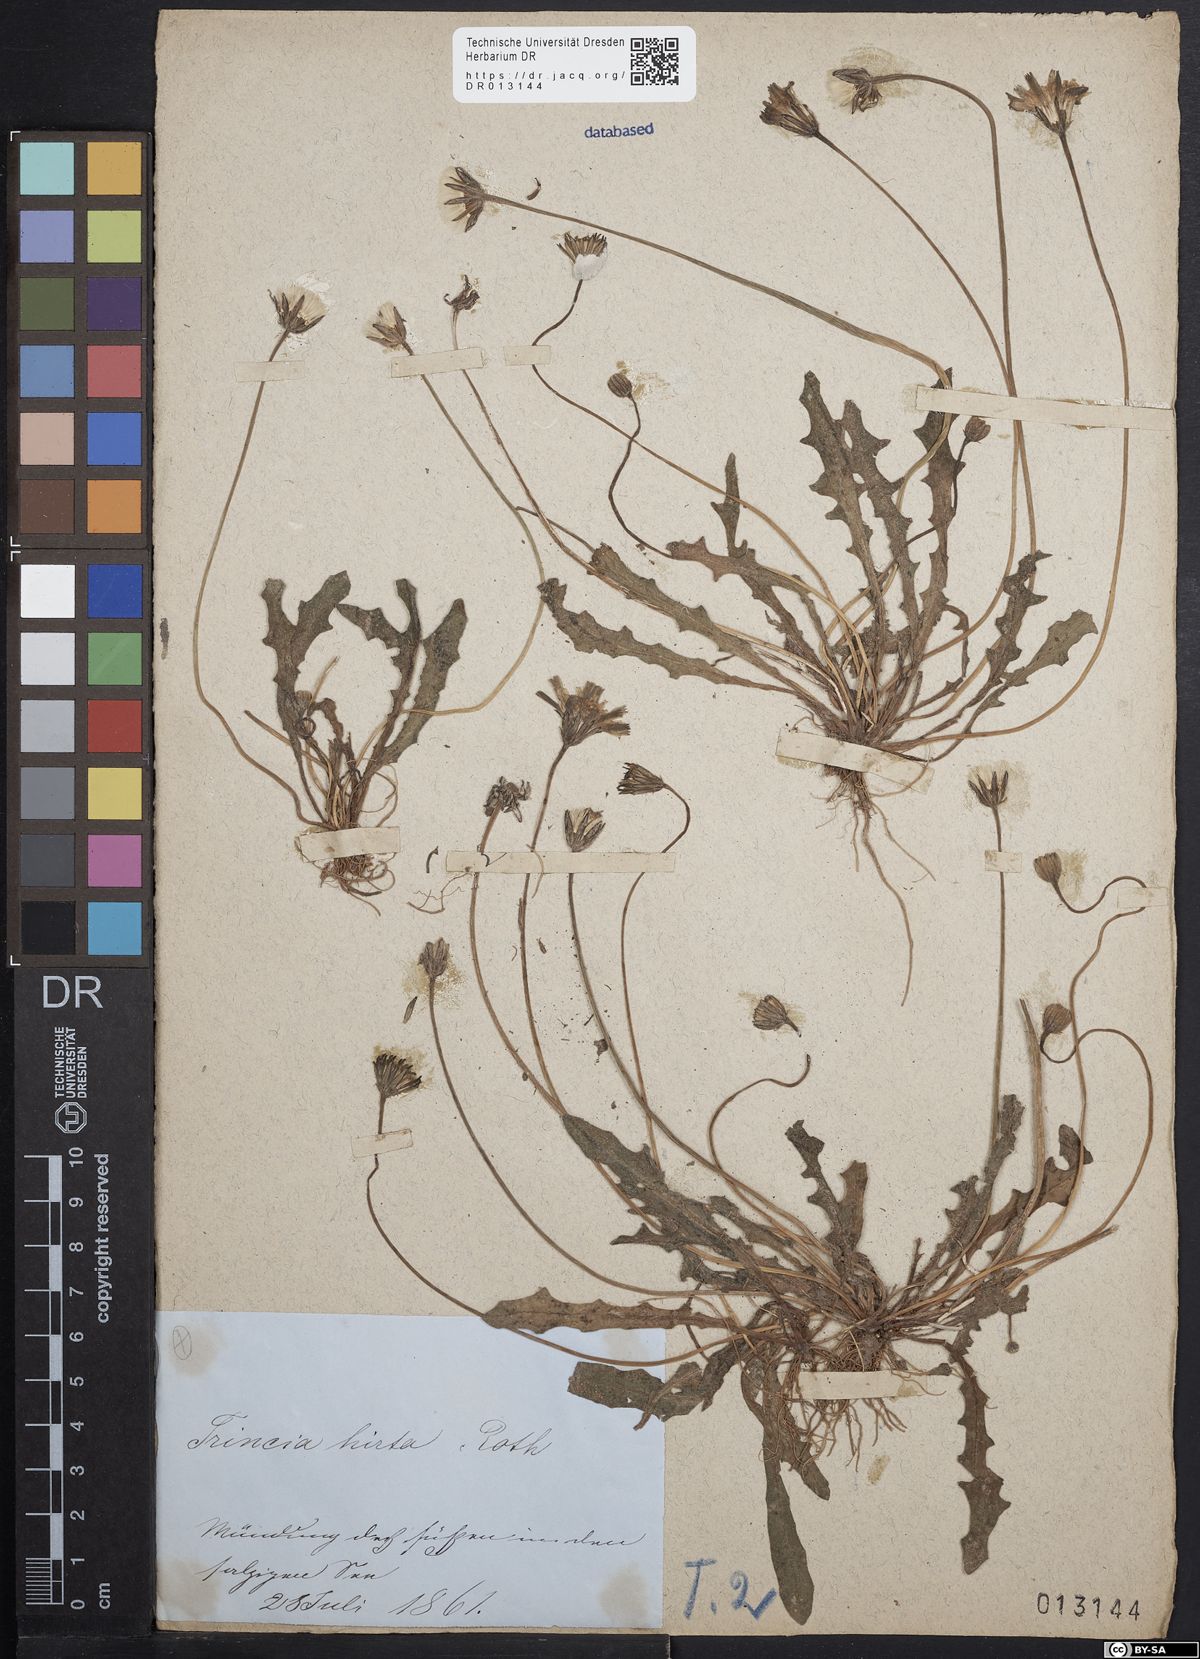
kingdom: Plantae
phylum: Tracheophyta
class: Magnoliopsida
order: Asterales
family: Asteraceae
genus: Thrincia
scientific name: Thrincia saxatilis
